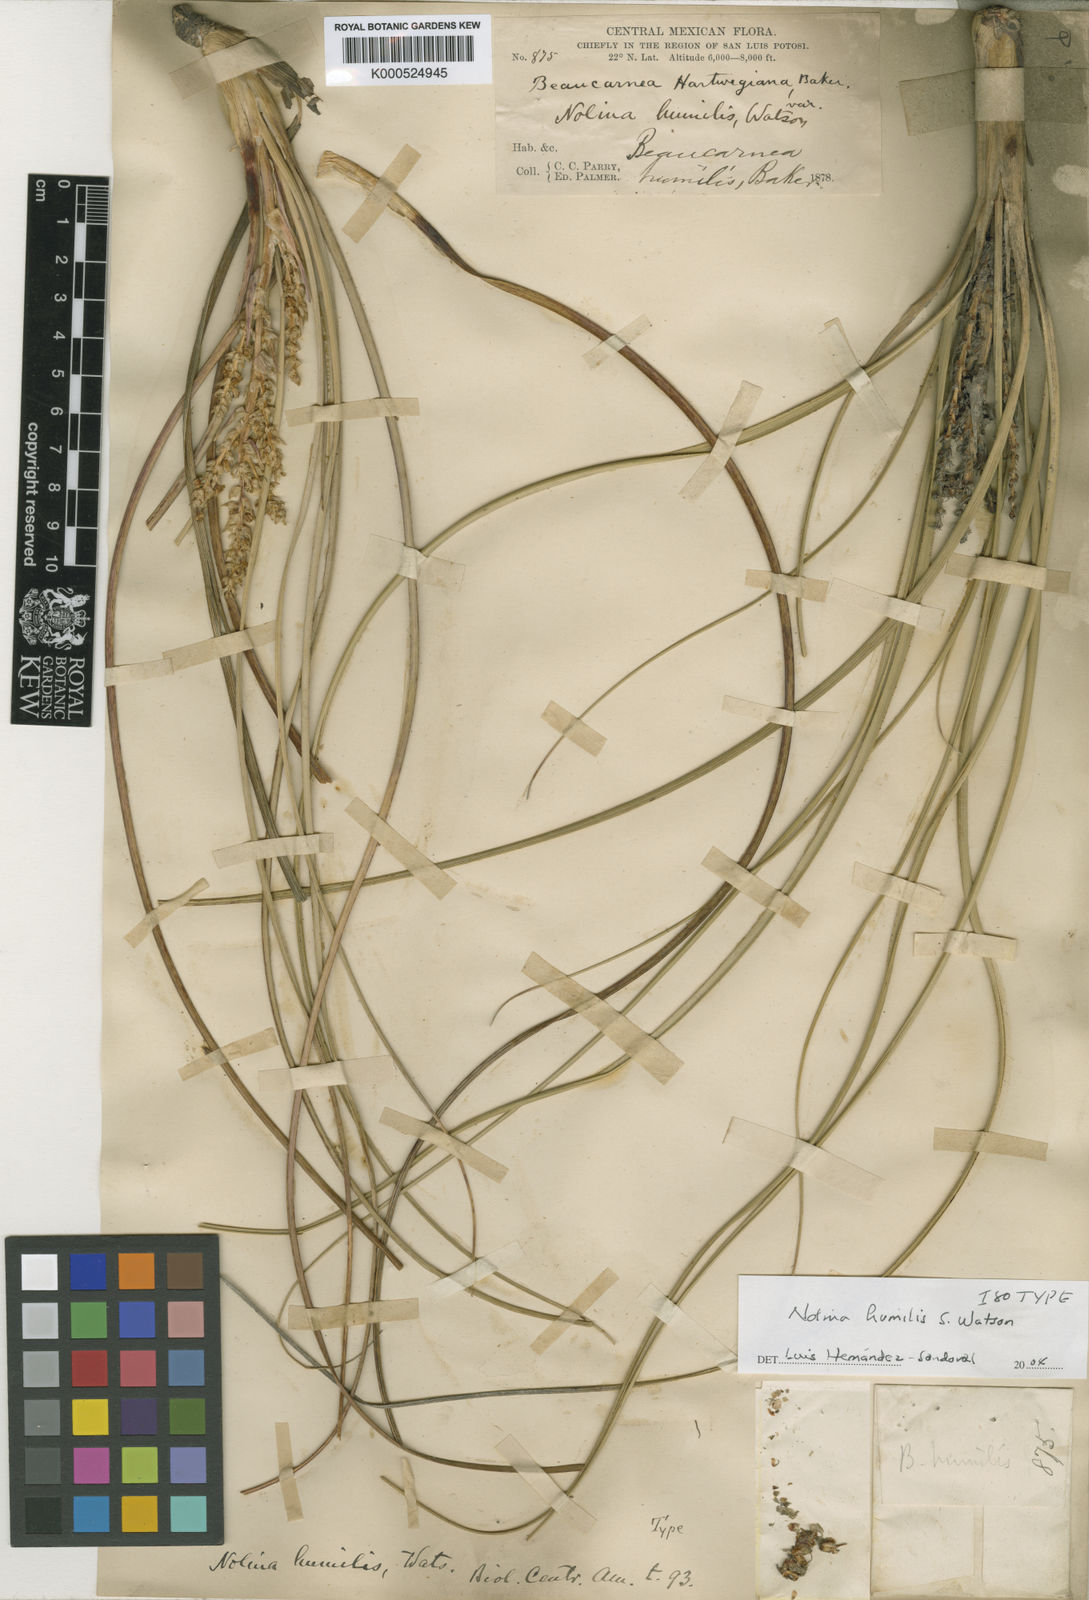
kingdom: Plantae
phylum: Tracheophyta
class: Liliopsida
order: Asparagales
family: Asparagaceae
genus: Nolina
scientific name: Nolina humilis
